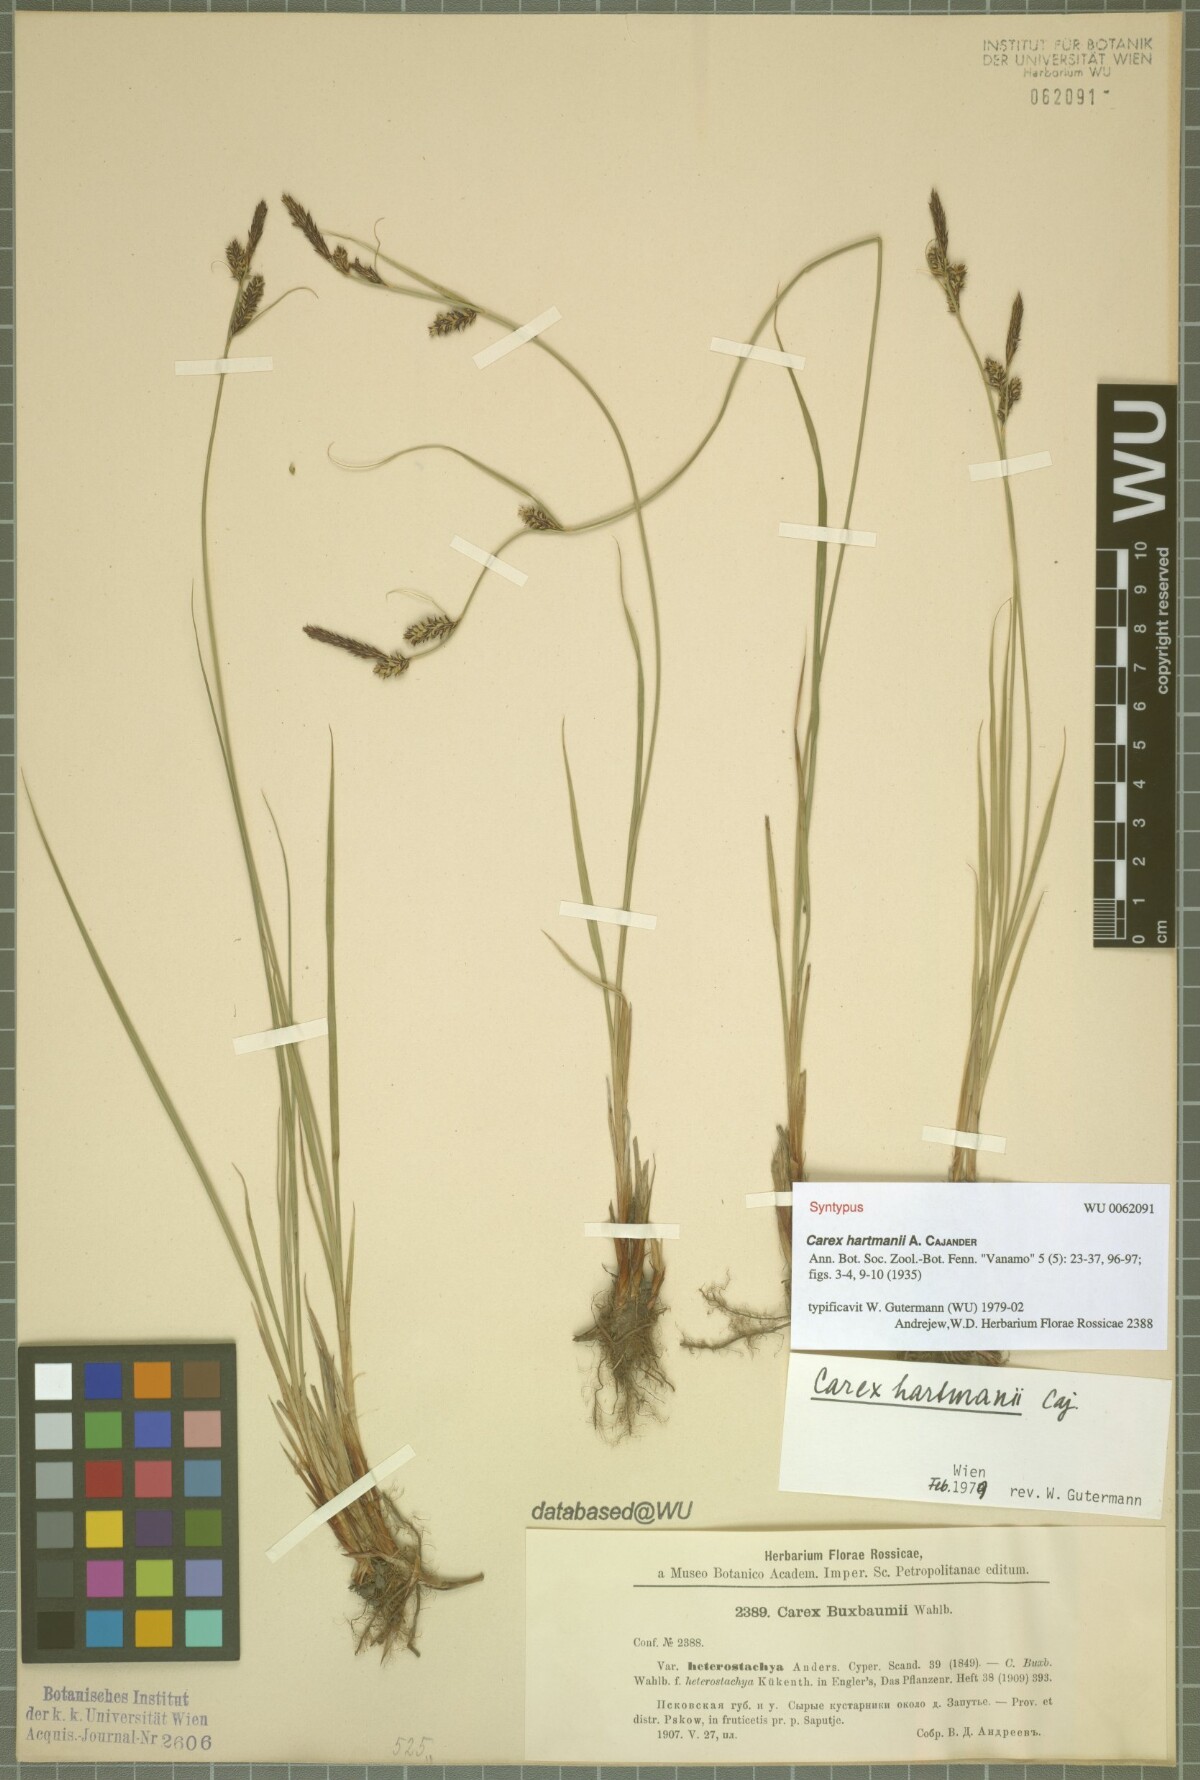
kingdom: Plantae
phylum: Tracheophyta
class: Liliopsida
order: Poales
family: Cyperaceae
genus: Carex
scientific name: Carex hartmaniorum
